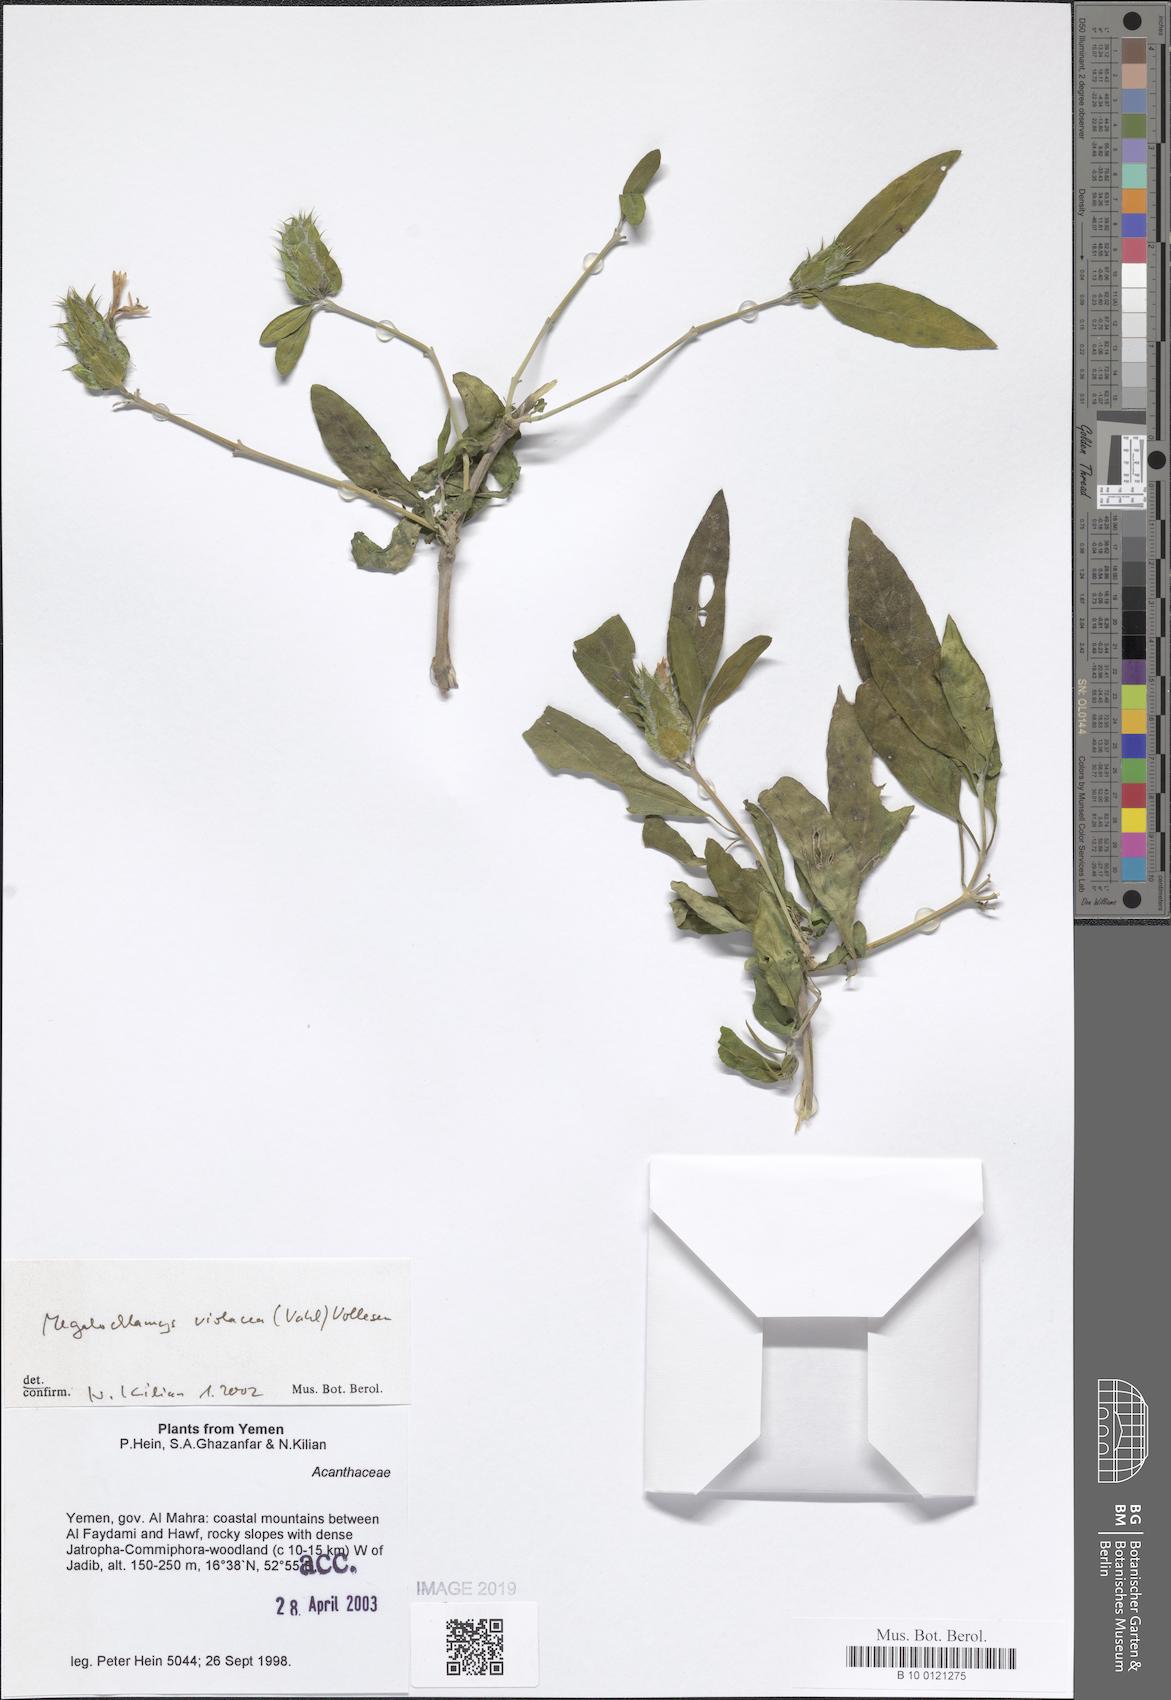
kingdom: Plantae
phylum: Tracheophyta
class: Magnoliopsida
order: Lamiales
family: Acanthaceae
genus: Megalochlamys
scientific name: Megalochlamys violacea
